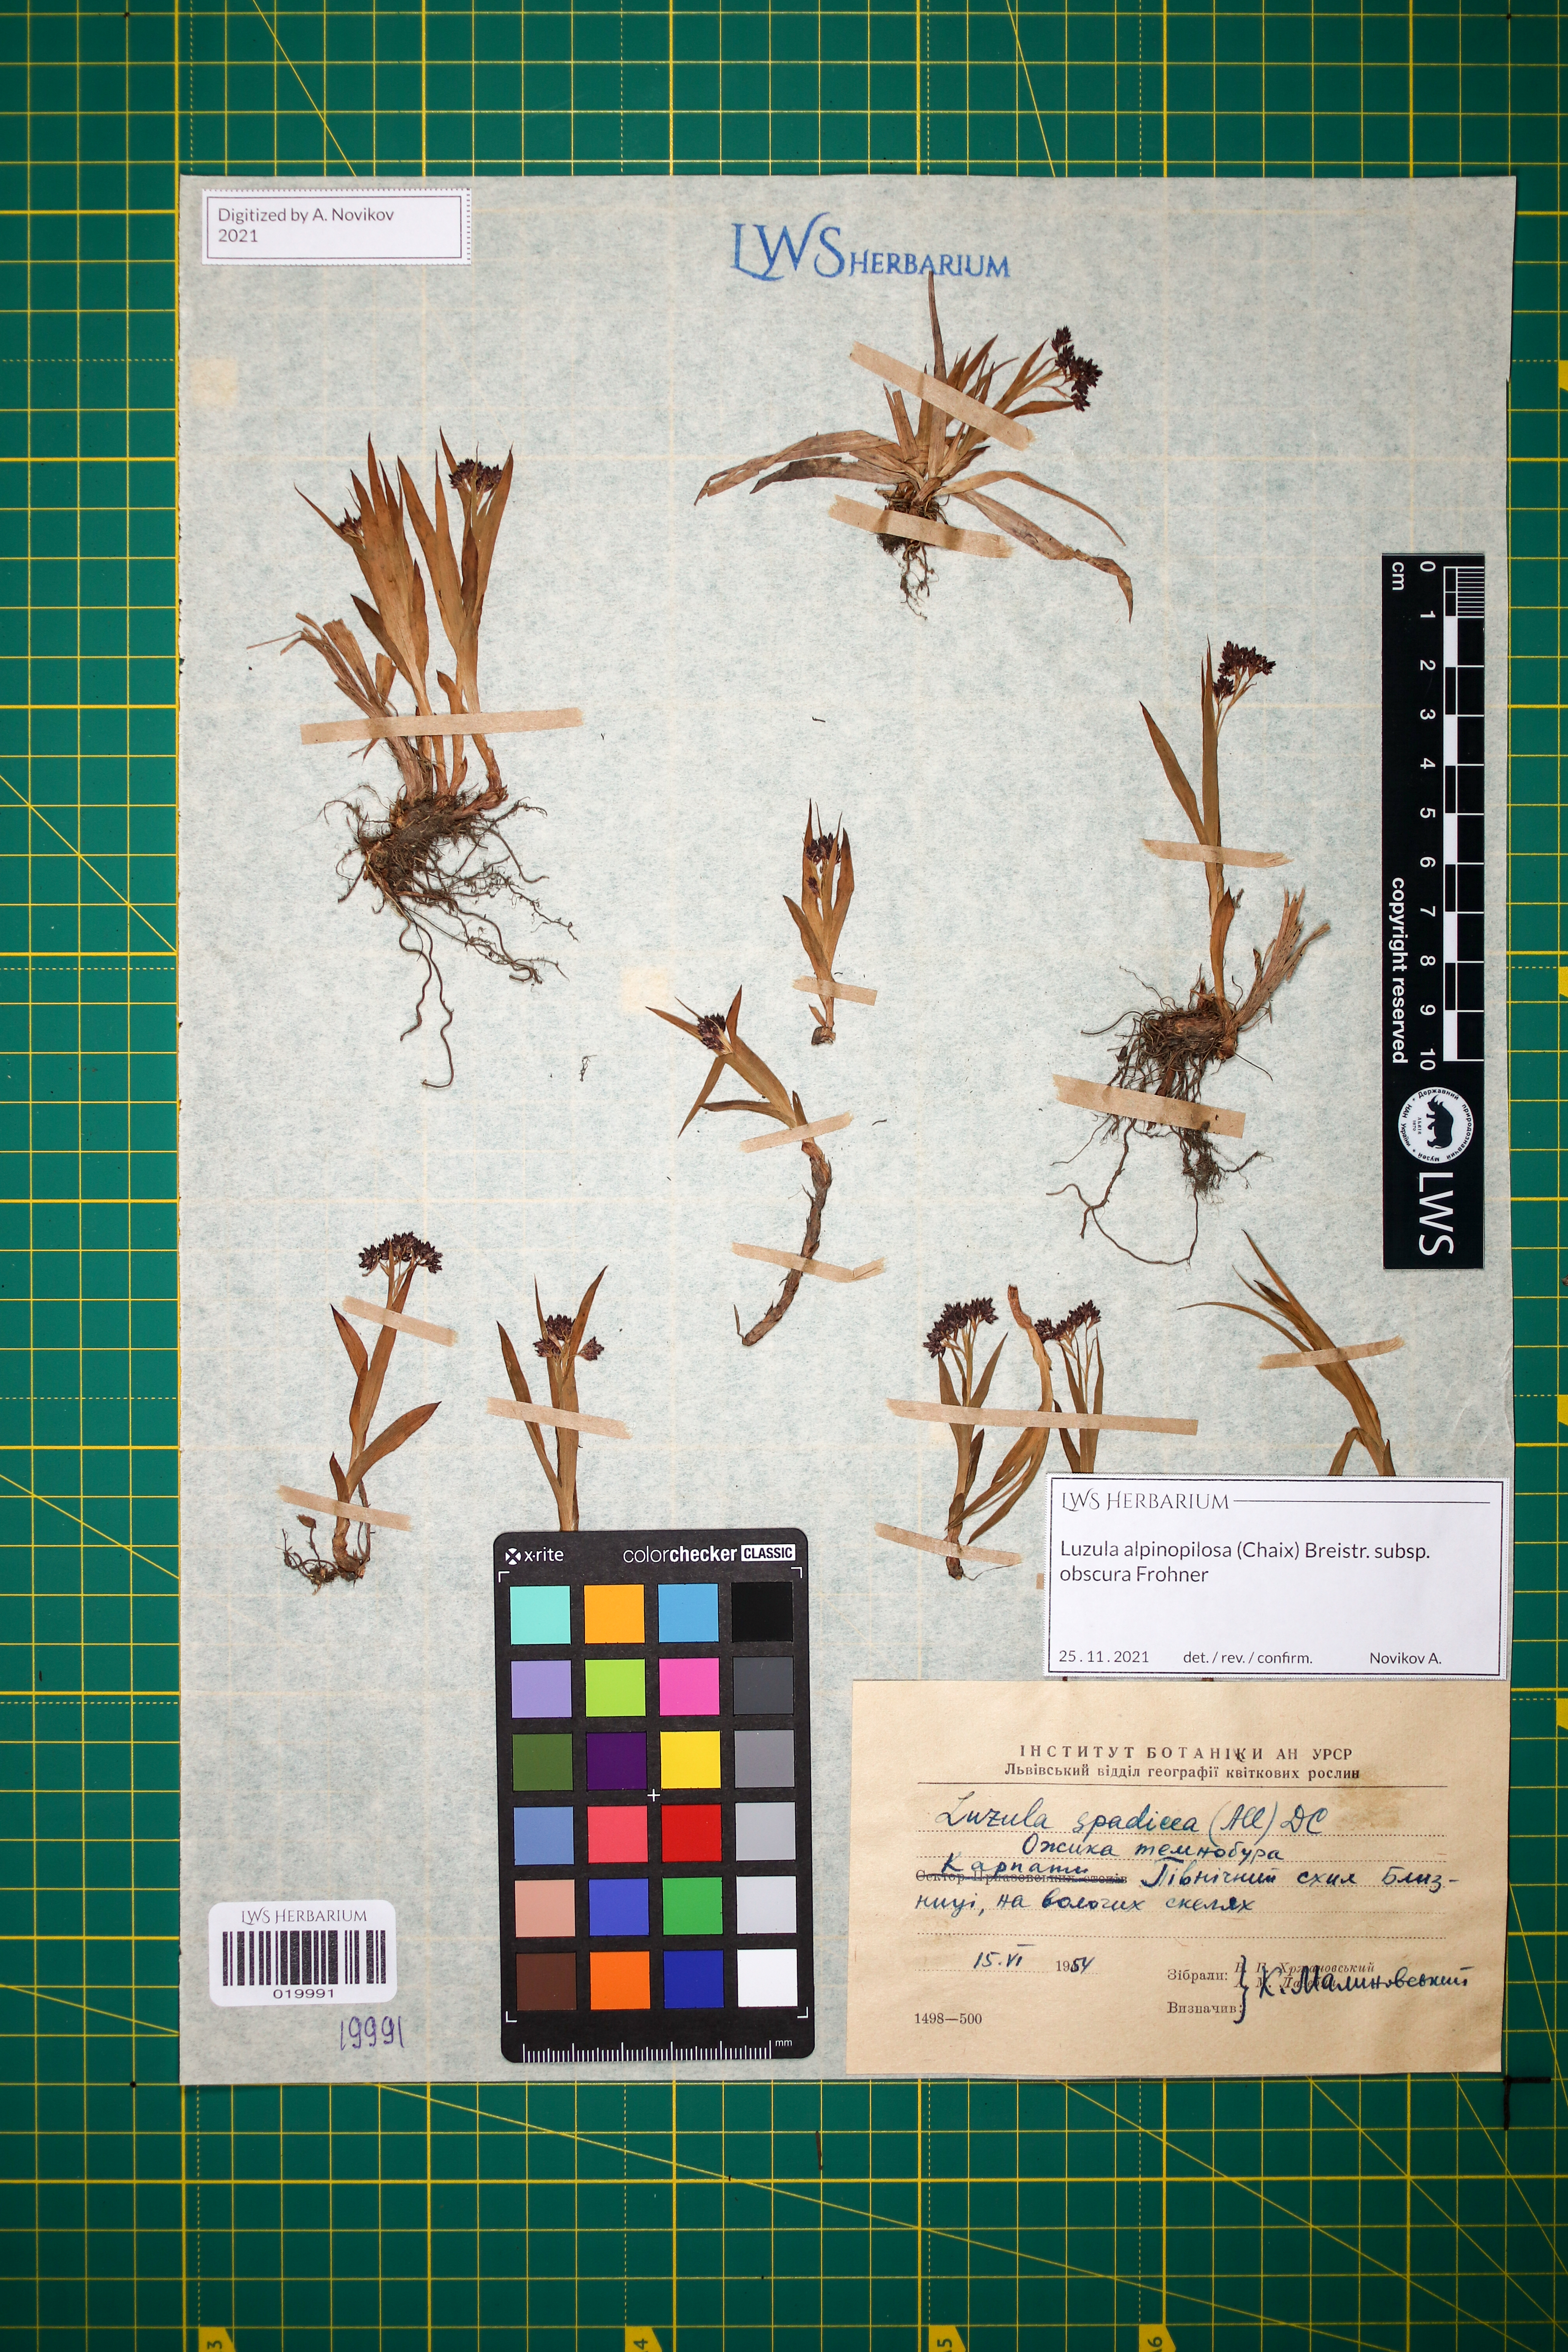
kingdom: Plantae
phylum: Tracheophyta
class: Liliopsida
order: Poales
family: Juncaceae
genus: Luzula
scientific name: Luzula alpinopilosa
